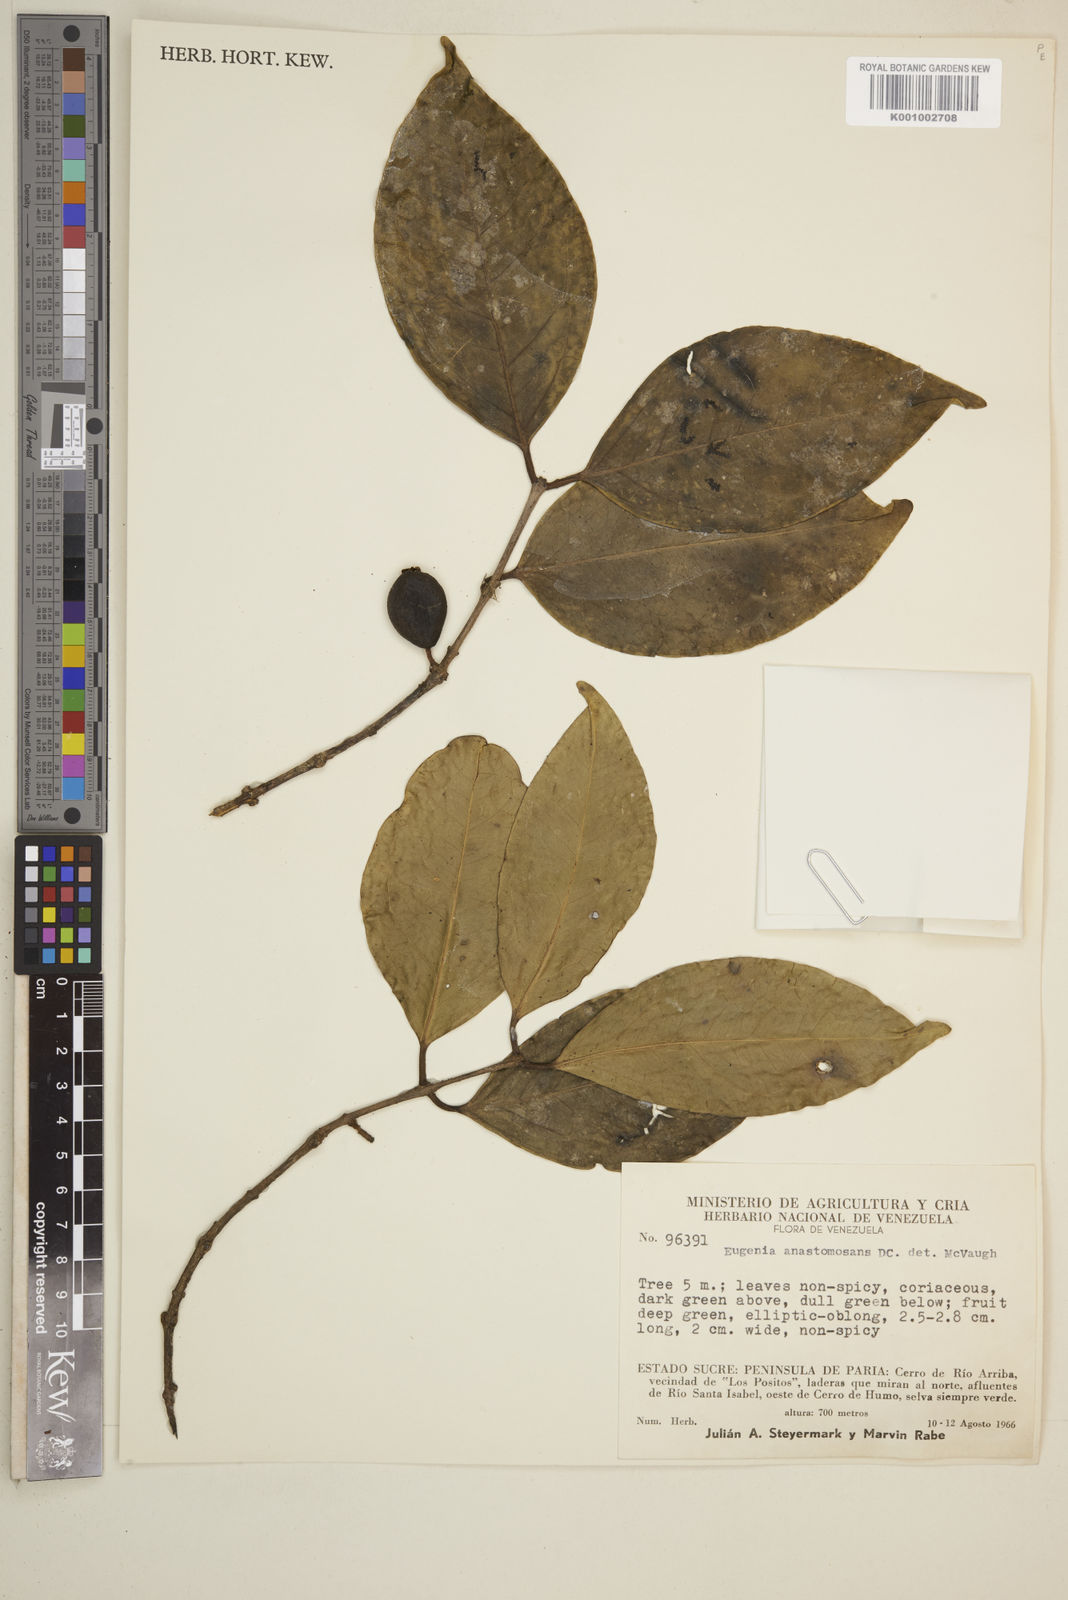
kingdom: Plantae
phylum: Tracheophyta
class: Magnoliopsida
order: Myrtales
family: Myrtaceae
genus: Eugenia
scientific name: Eugenia anastomosans
